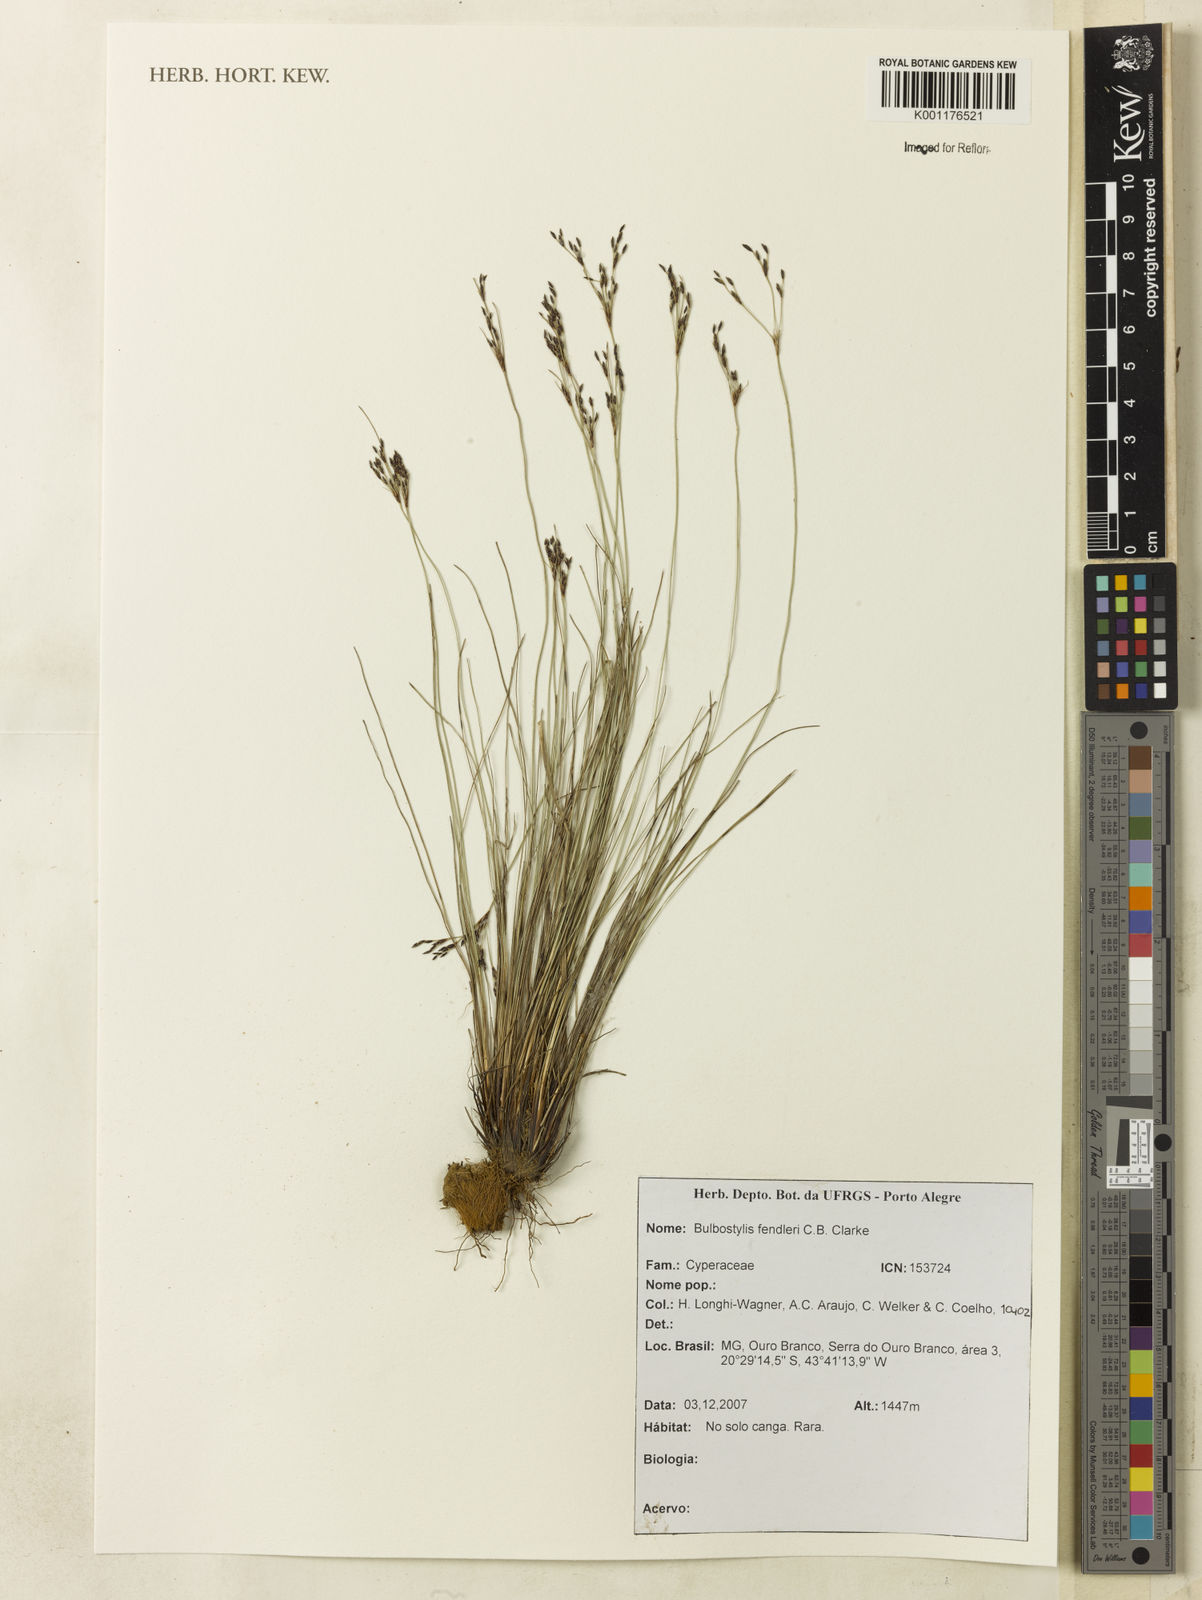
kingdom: Plantae
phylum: Tracheophyta
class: Liliopsida
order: Poales
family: Cyperaceae
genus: Bulbostylis
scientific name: Bulbostylis juncoides
